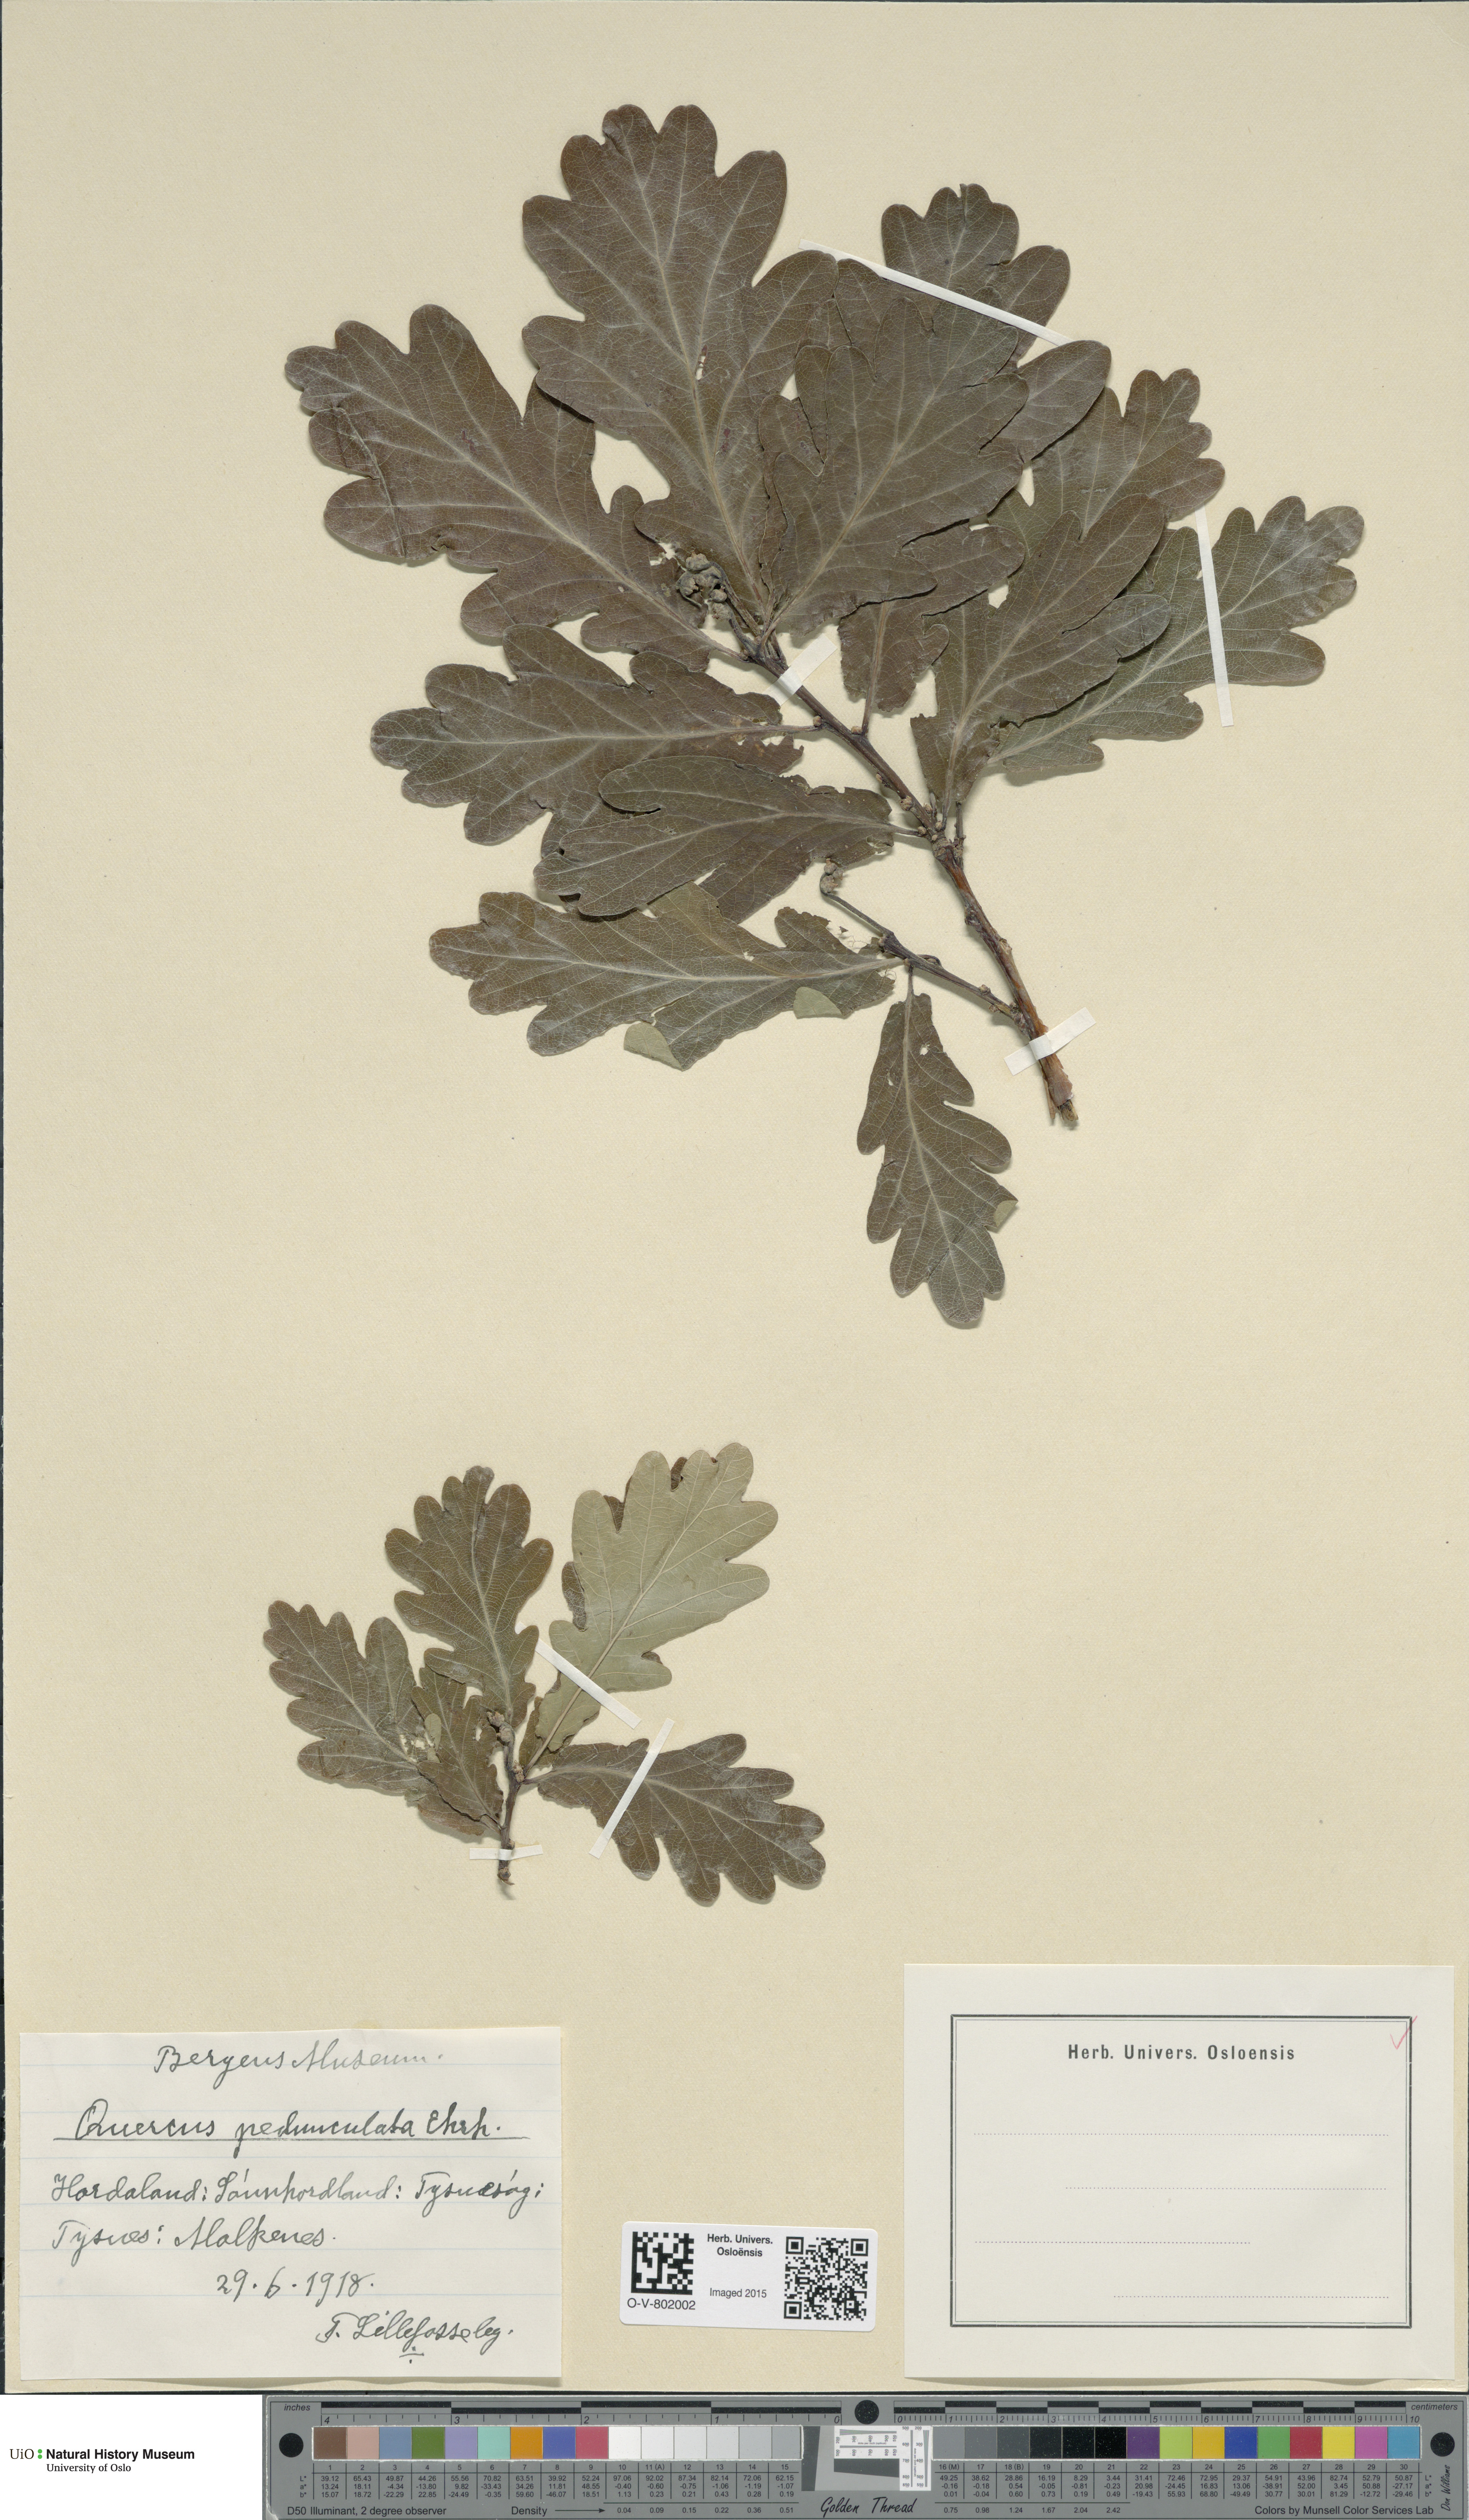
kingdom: Plantae
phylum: Tracheophyta
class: Magnoliopsida
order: Fagales
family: Fagaceae
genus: Quercus
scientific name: Quercus robur
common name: Pedunculate oak
